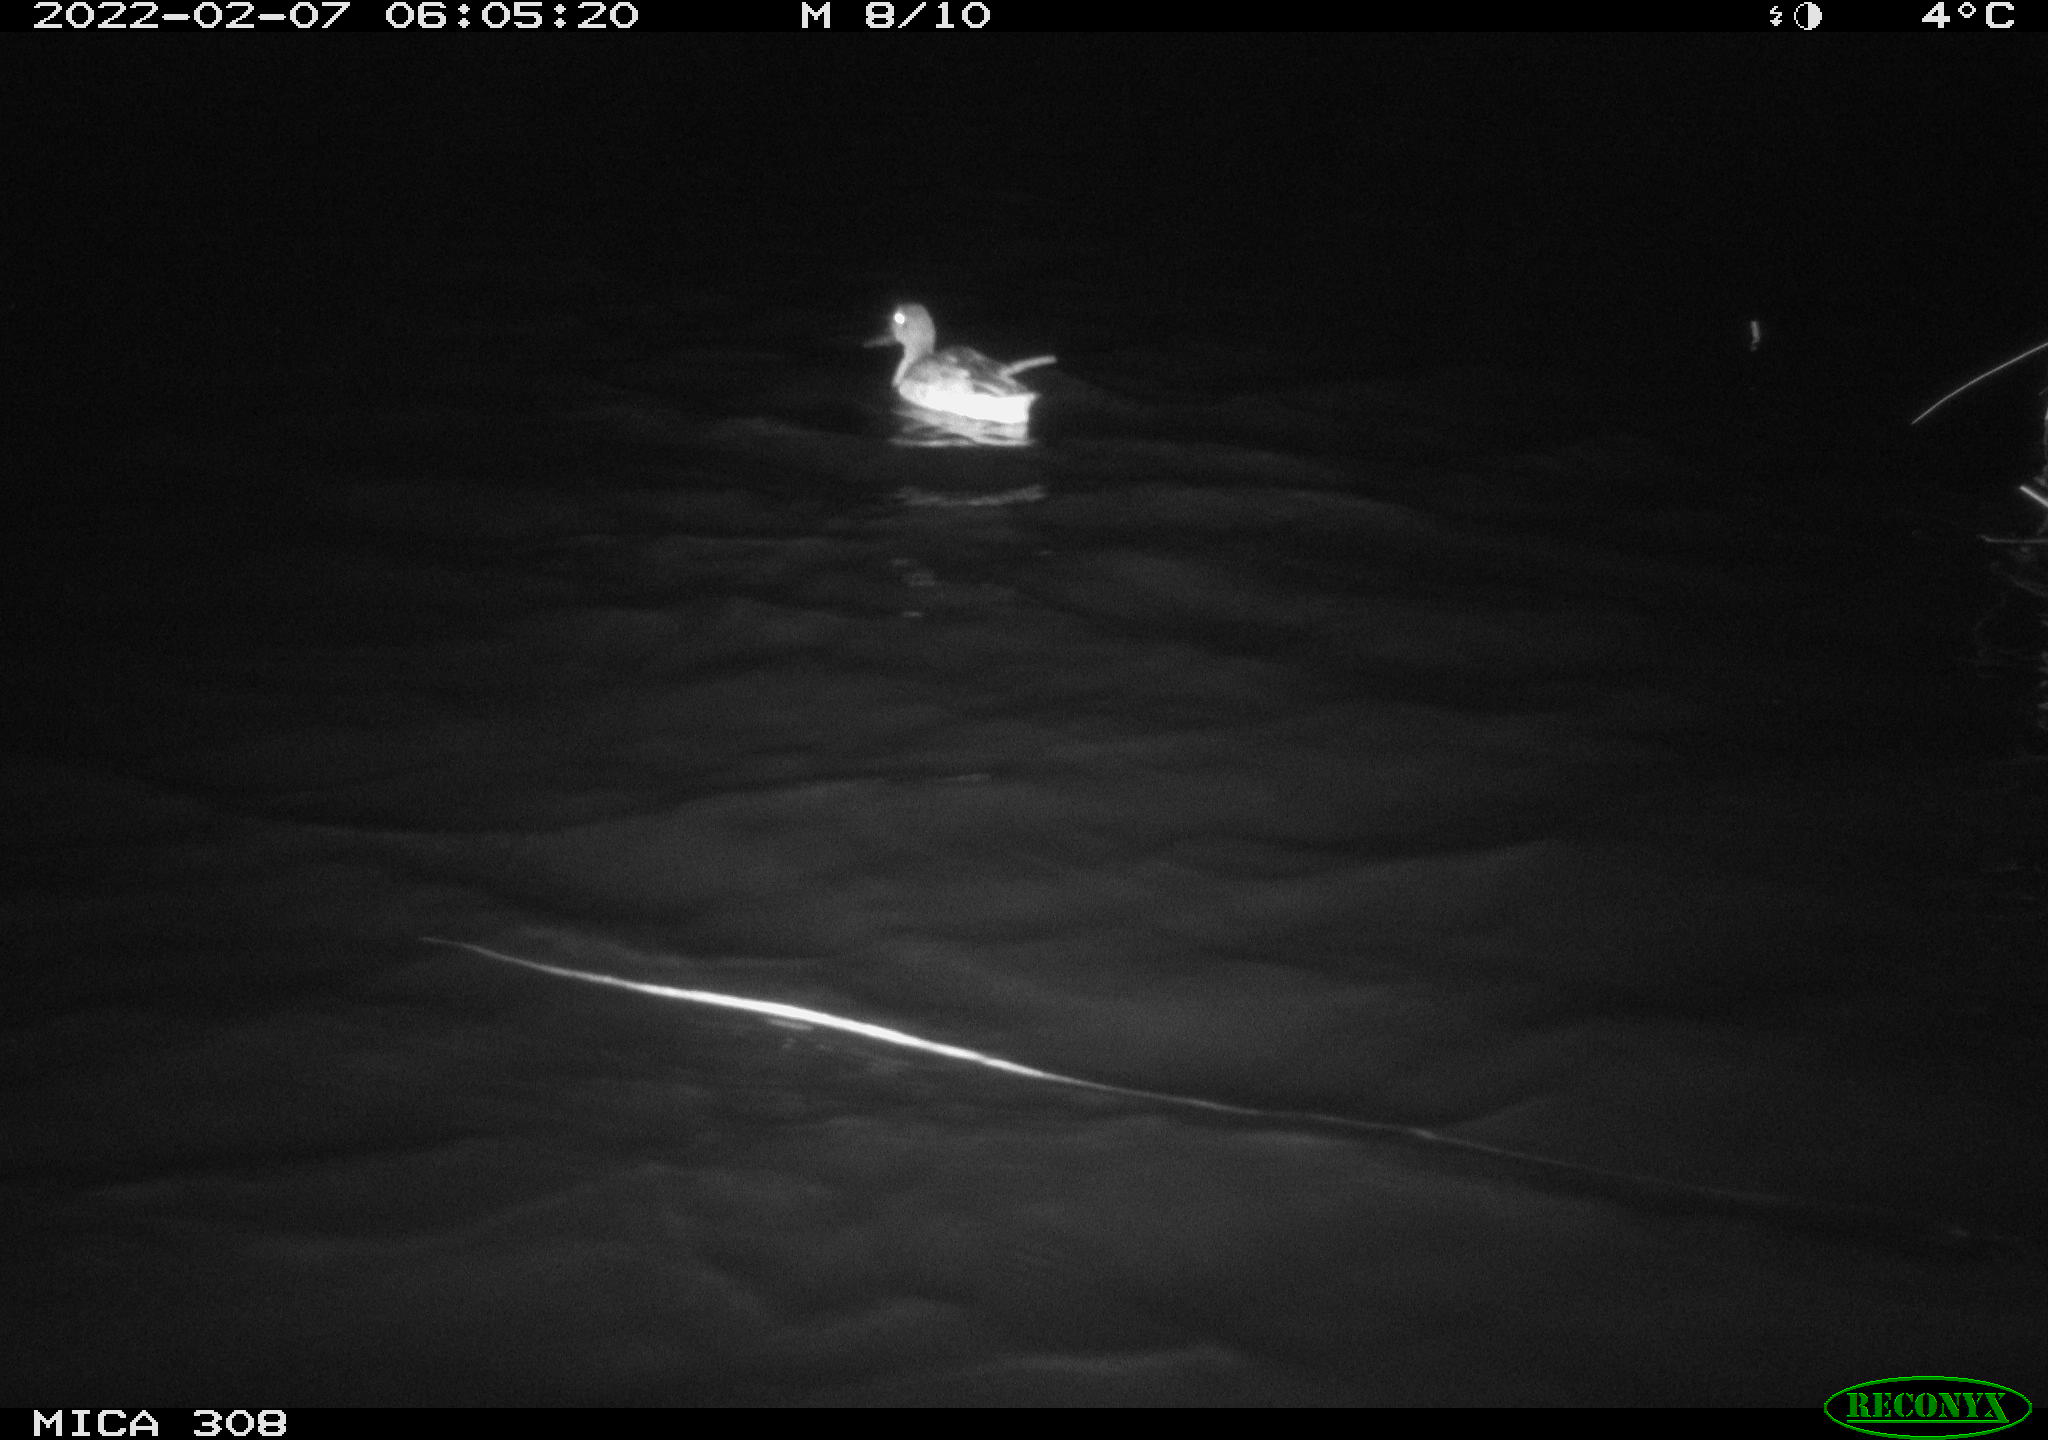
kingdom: Animalia
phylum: Chordata
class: Aves
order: Anseriformes
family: Anatidae
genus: Mareca
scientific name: Mareca strepera
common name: Gadwall
